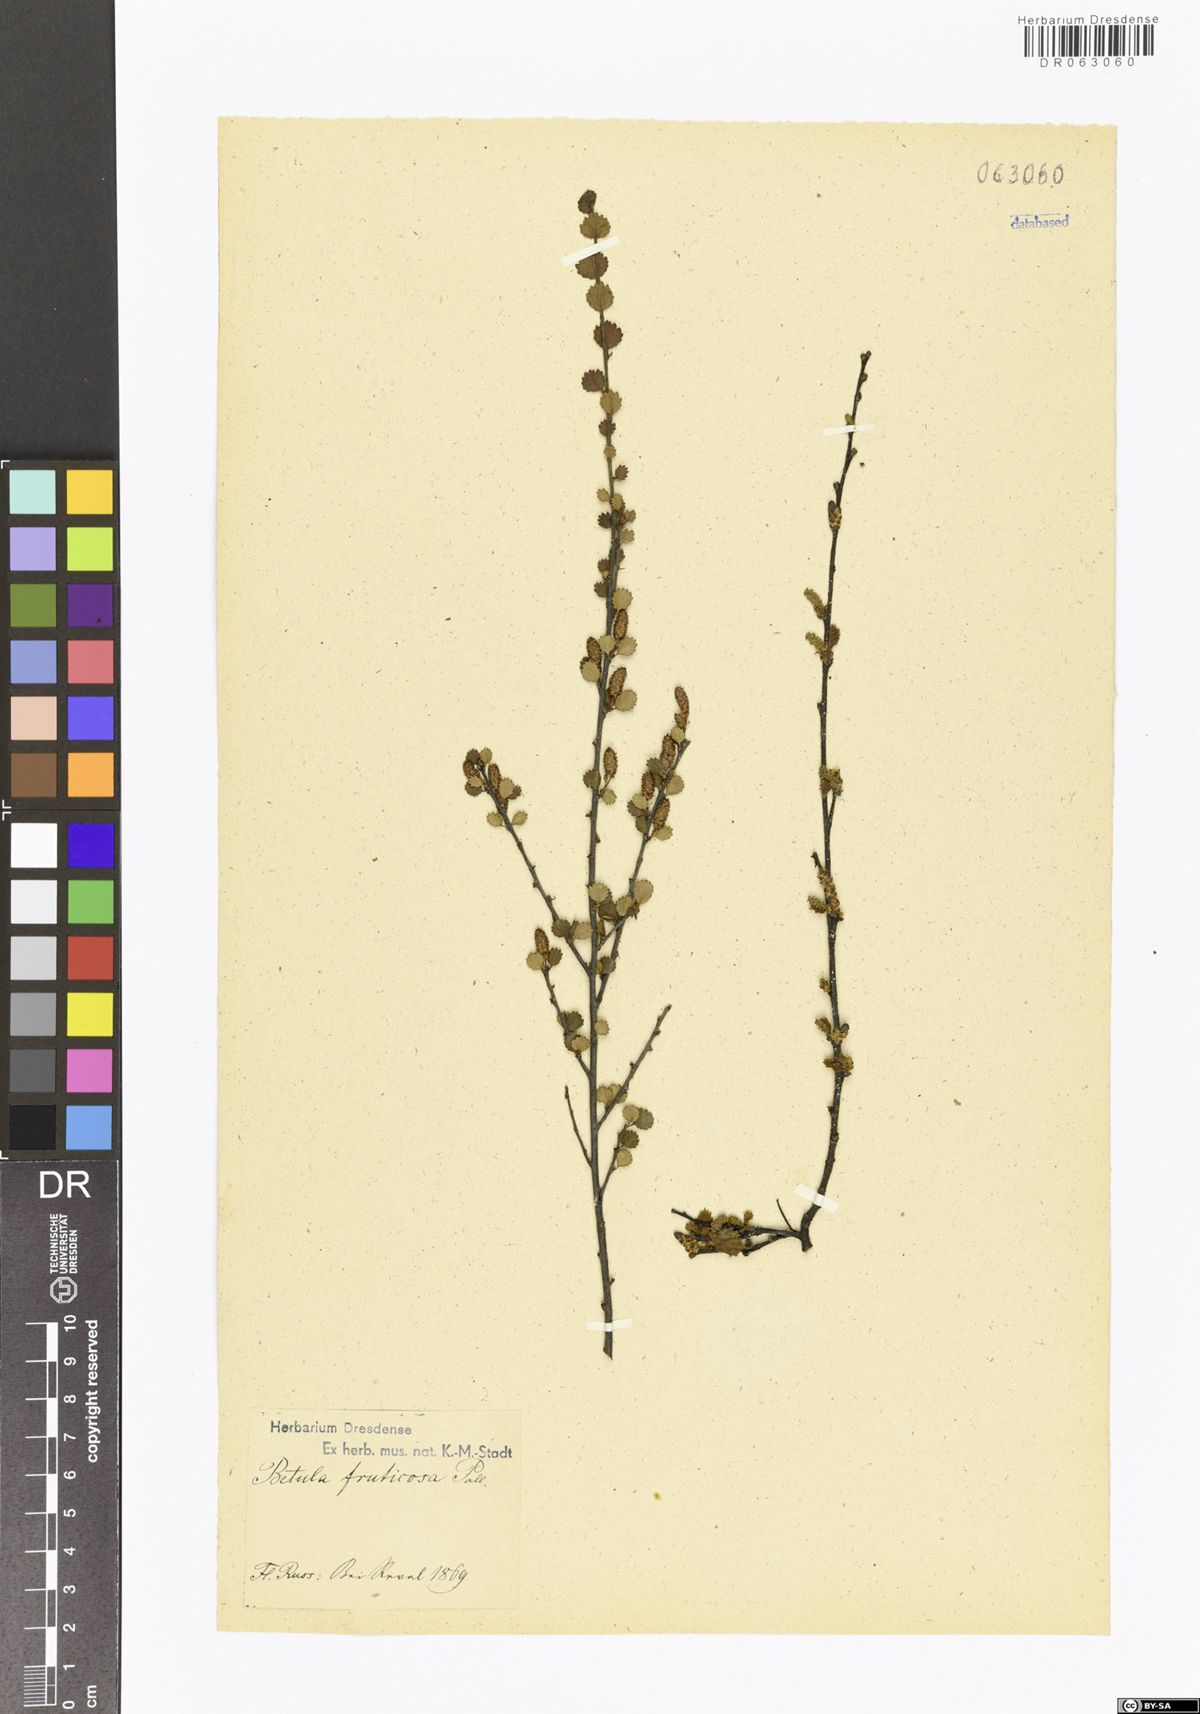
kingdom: Plantae
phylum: Tracheophyta
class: Magnoliopsida
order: Fagales
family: Betulaceae
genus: Betula
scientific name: Betula fruticosa
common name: Japanese bog birch
